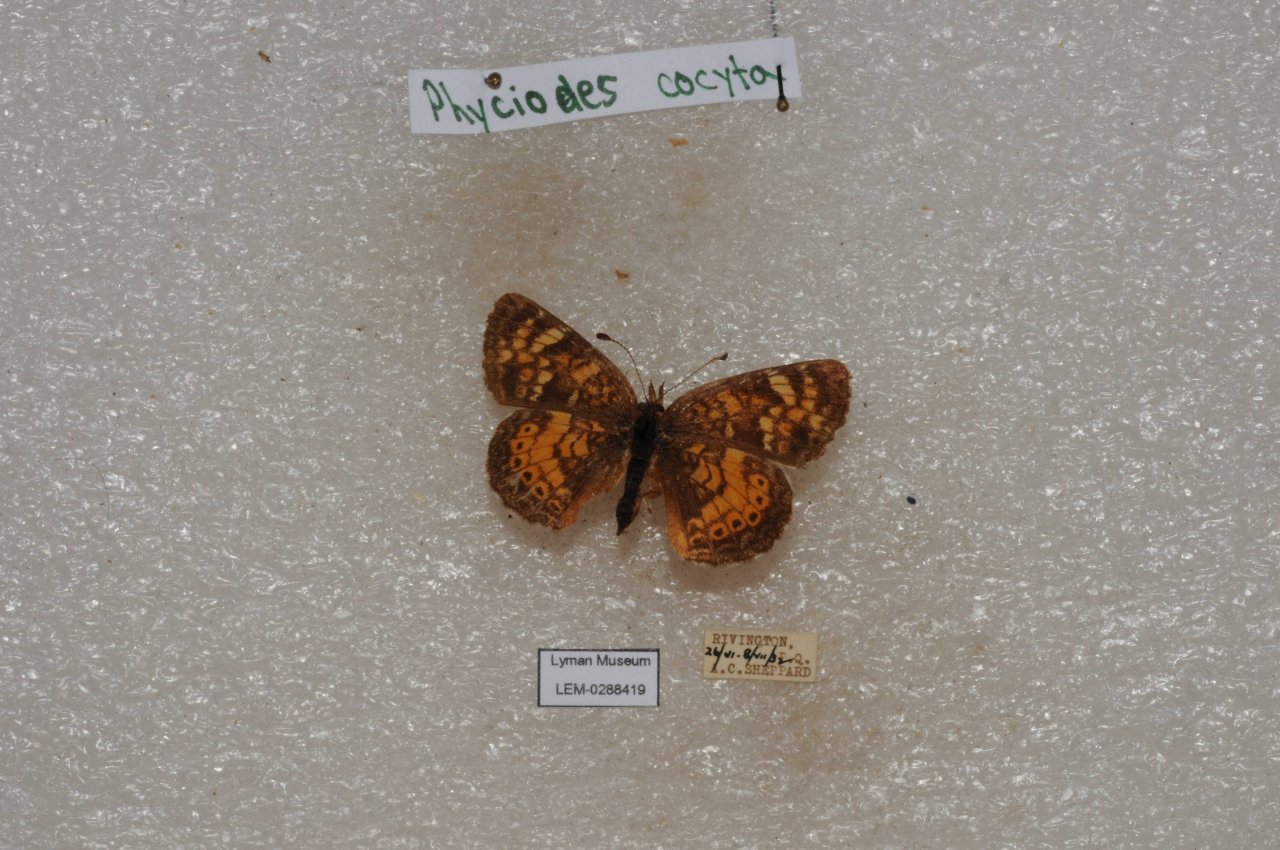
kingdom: Animalia
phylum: Arthropoda
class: Insecta
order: Lepidoptera
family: Nymphalidae
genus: Phyciodes
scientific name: Phyciodes tharos
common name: Northern Crescent
